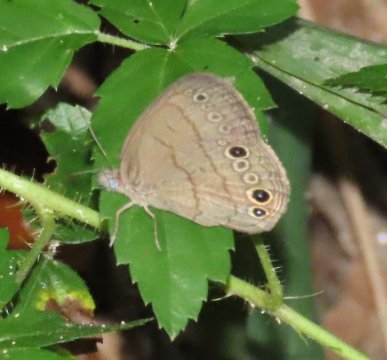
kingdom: Animalia
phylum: Arthropoda
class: Insecta
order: Lepidoptera
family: Nymphalidae
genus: Hermeuptychia
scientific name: Hermeuptychia intricata
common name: Intricate Satyr
